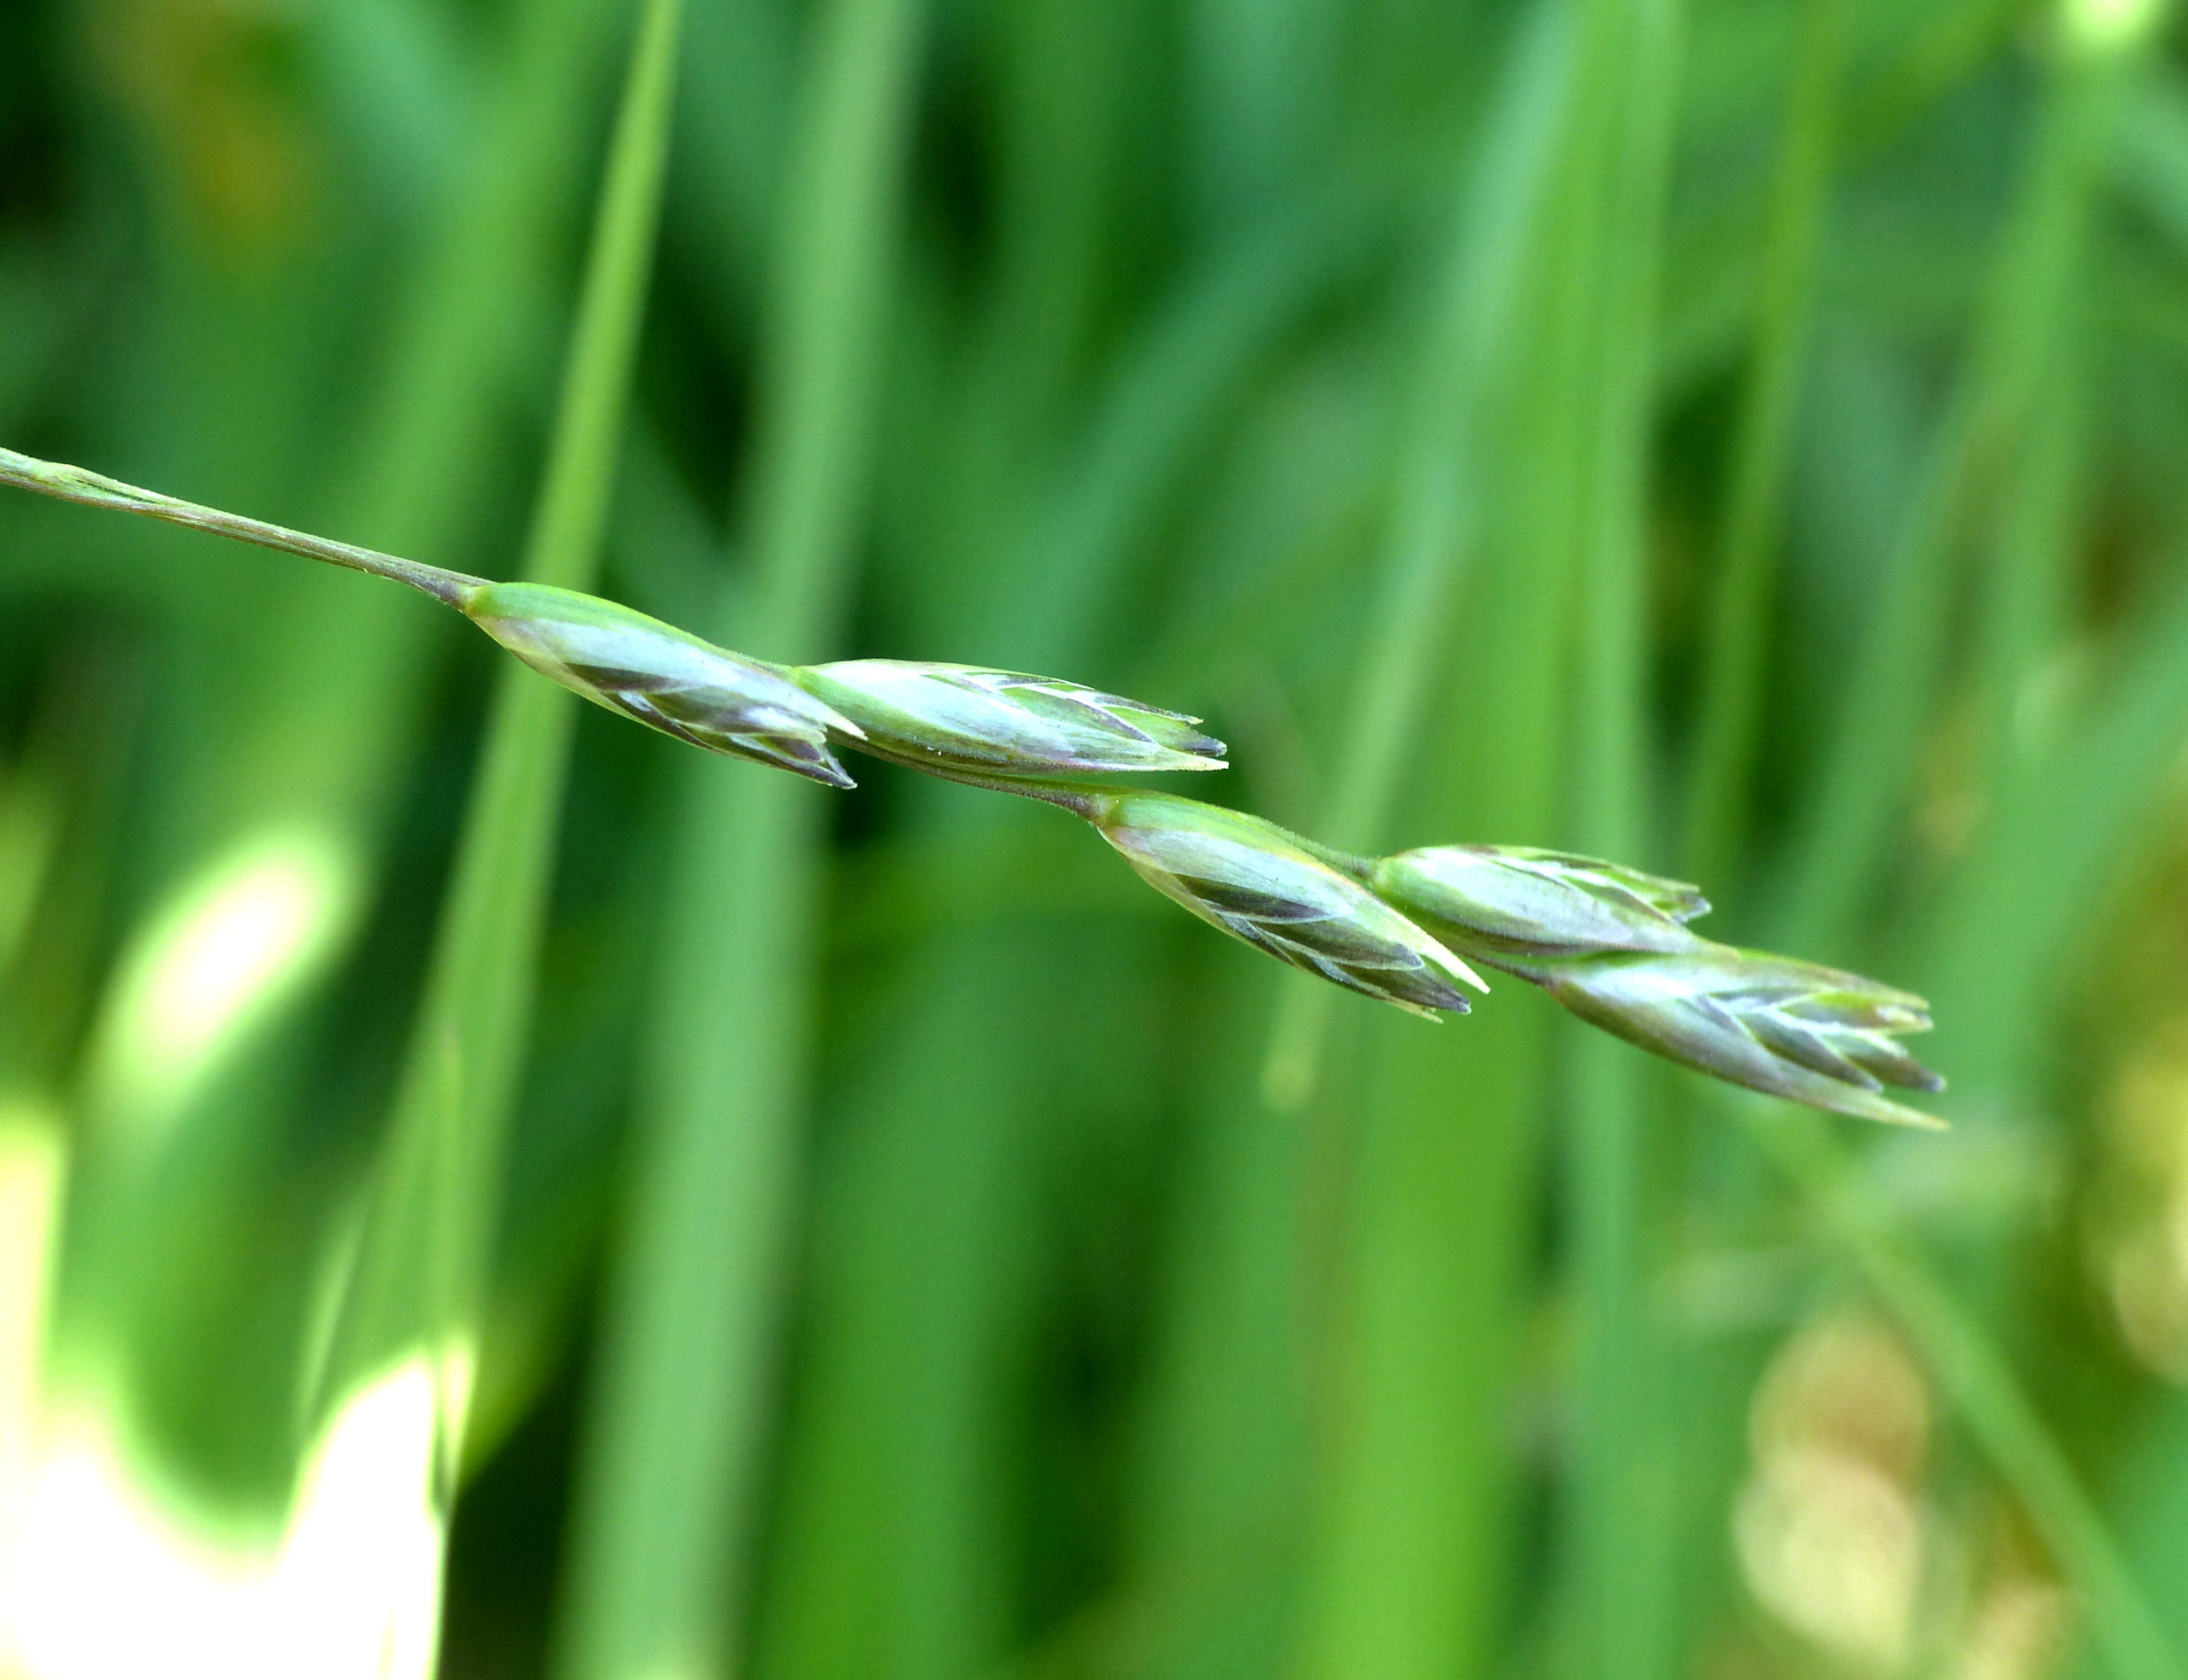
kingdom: Plantae
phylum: Tracheophyta
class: Liliopsida
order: Poales
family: Poaceae
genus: Danthonia
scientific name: Danthonia decumbens
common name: Tandbælg
